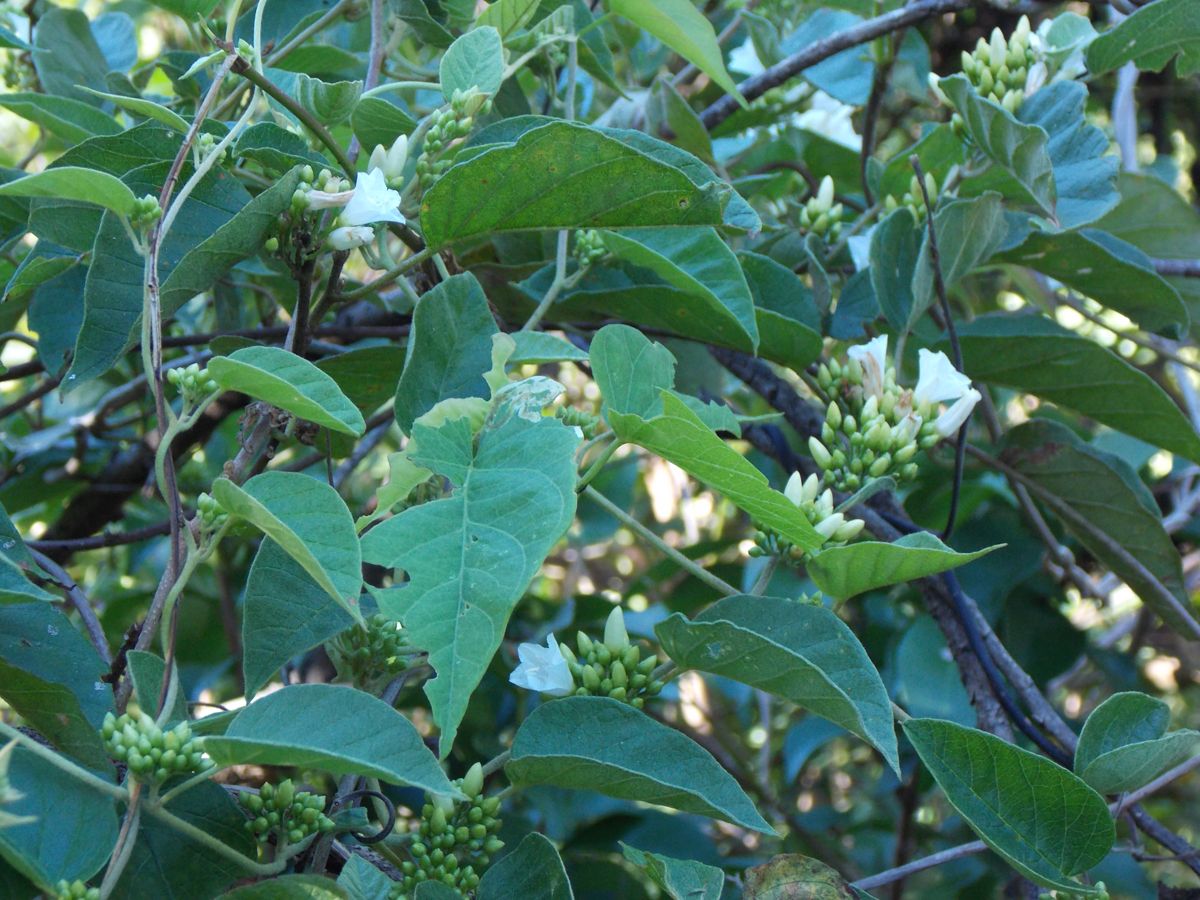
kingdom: Plantae
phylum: Tracheophyta
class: Magnoliopsida
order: Solanales
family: Convolvulaceae
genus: Jacquemontia
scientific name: Jacquemontia nodiflora
